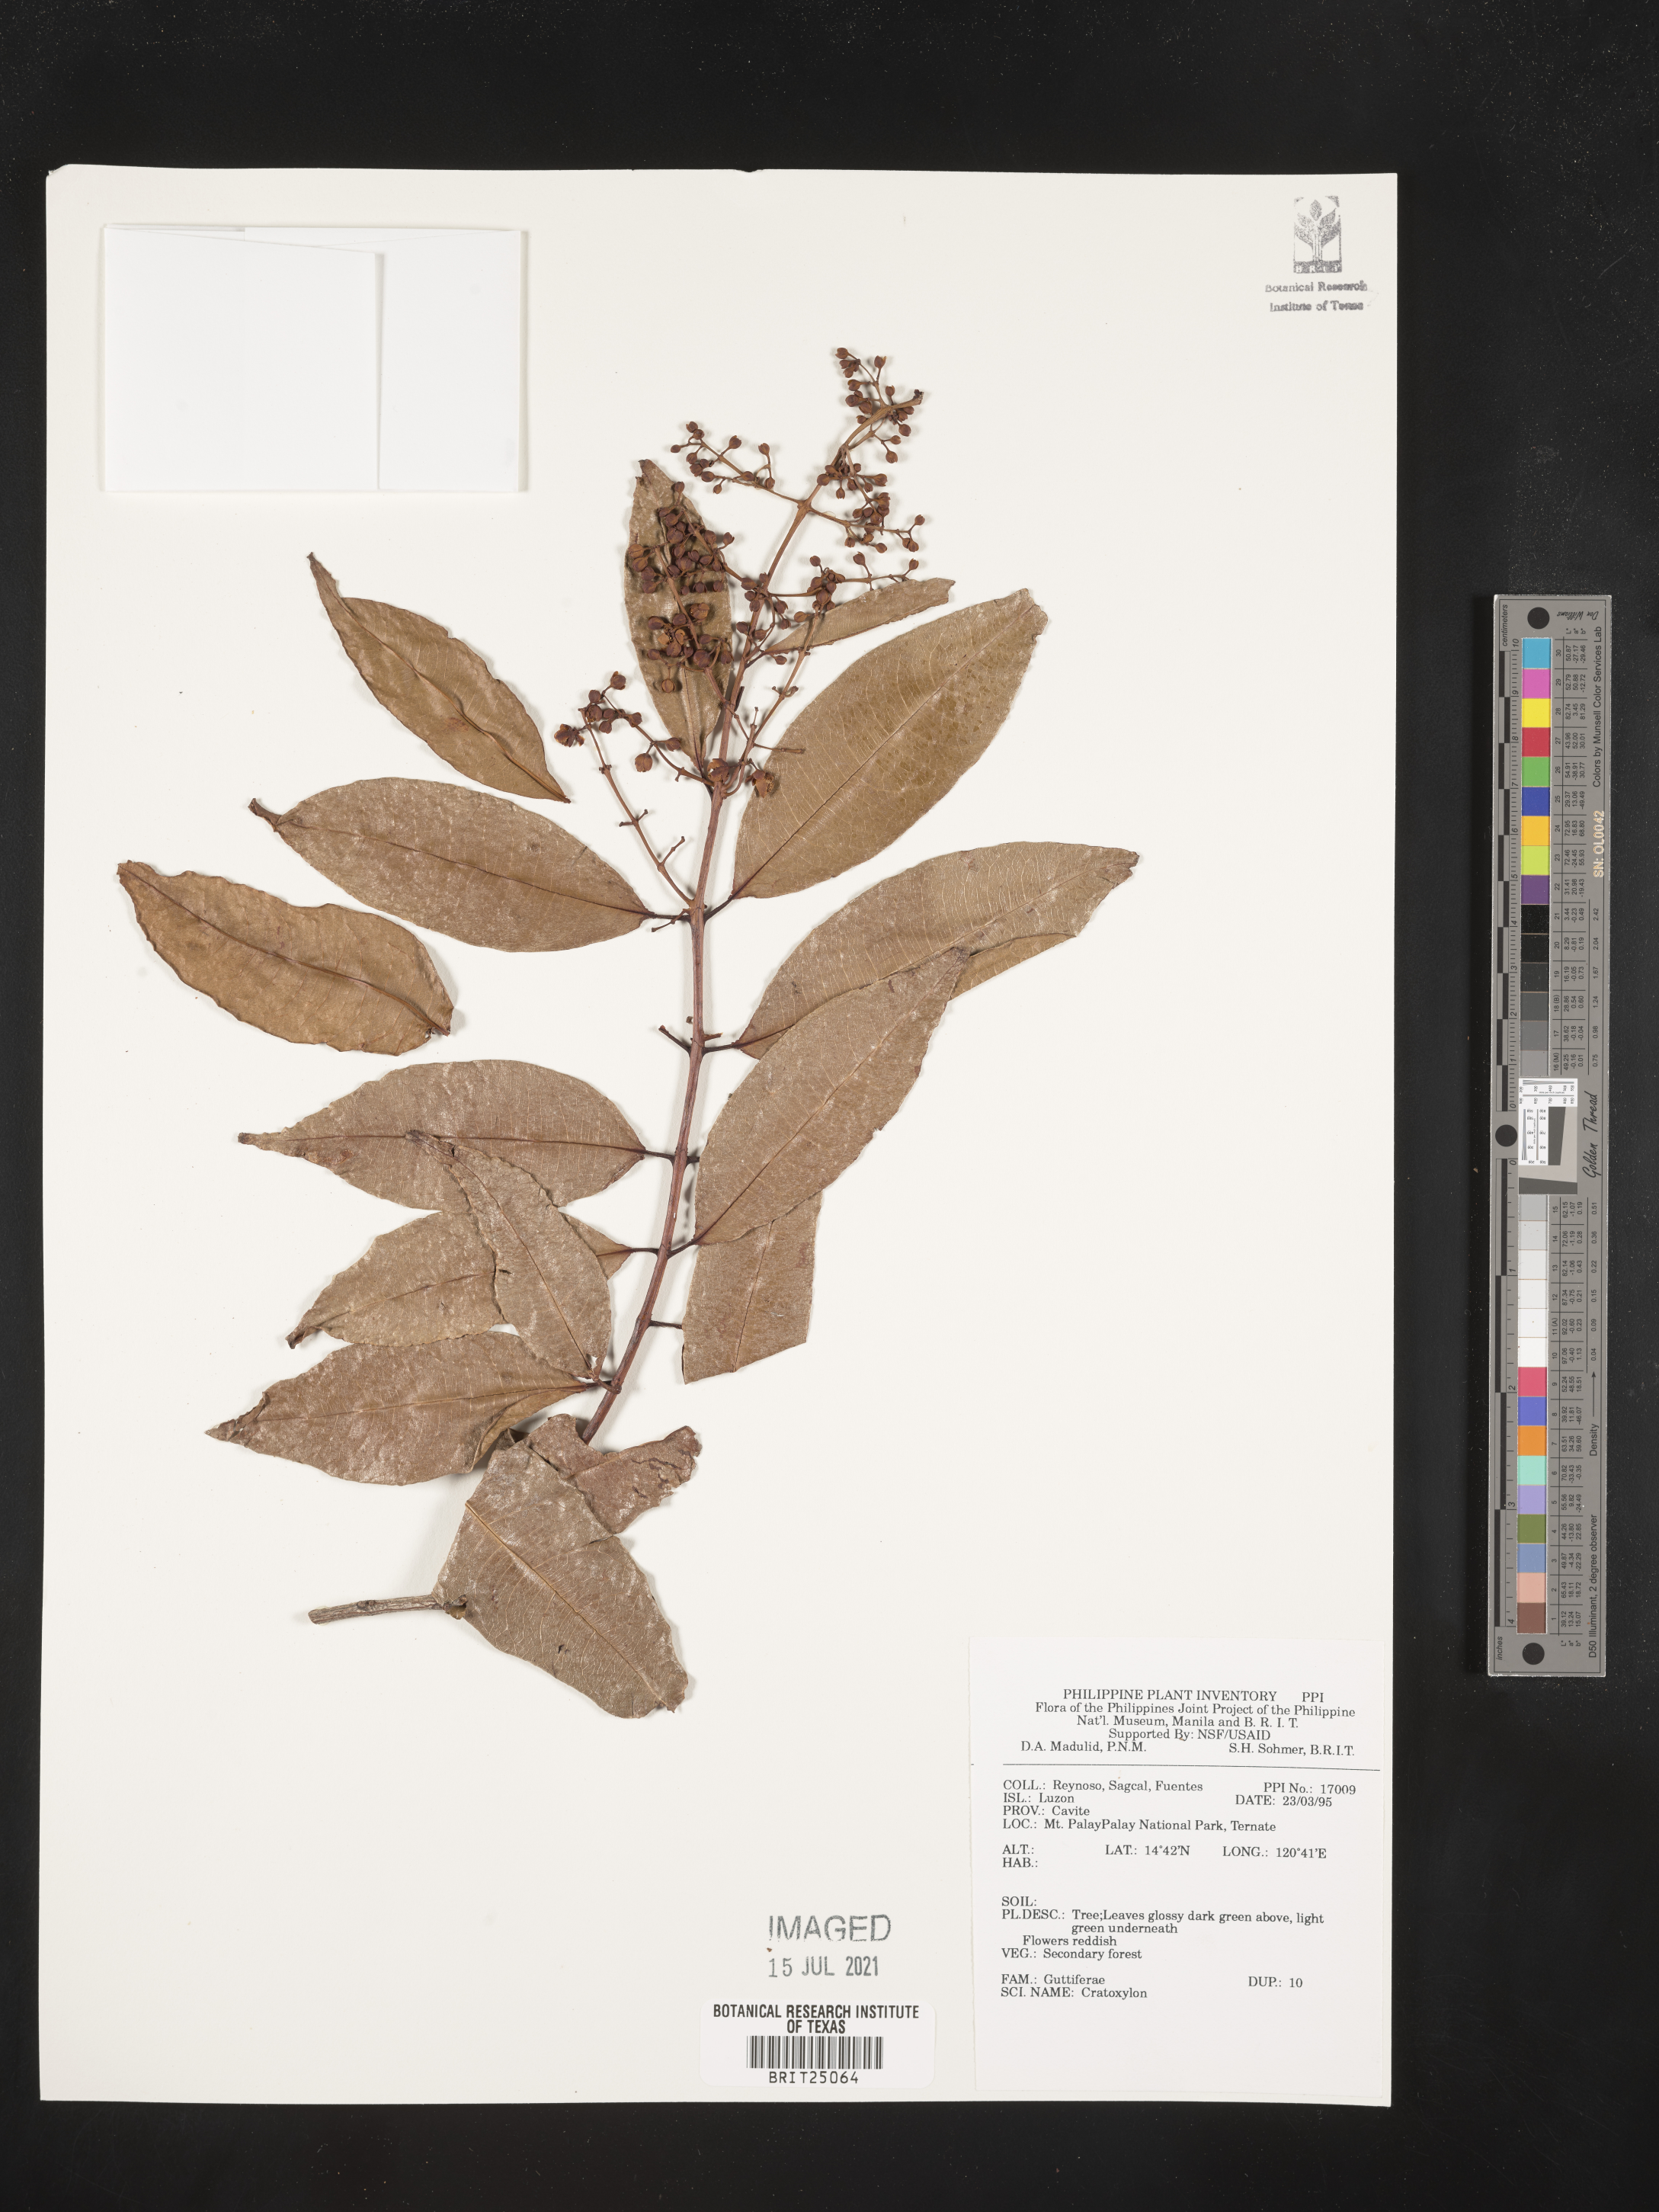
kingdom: Plantae
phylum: Tracheophyta
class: Magnoliopsida
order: Malpighiales
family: Hypericaceae
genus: Cratoxylum
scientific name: Cratoxylum
